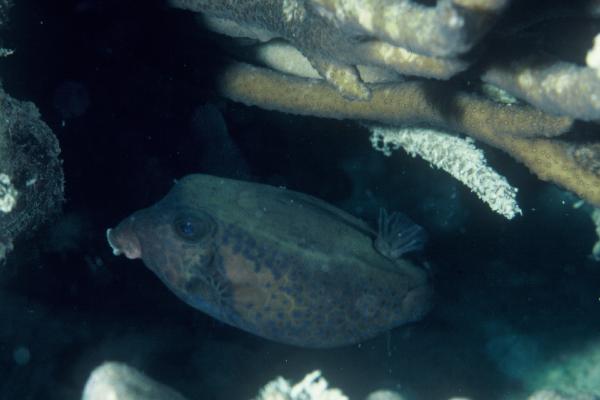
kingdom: Animalia
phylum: Chordata
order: Tetraodontiformes
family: Ostraciidae
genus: Ostracion
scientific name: Ostracion cyanurus
